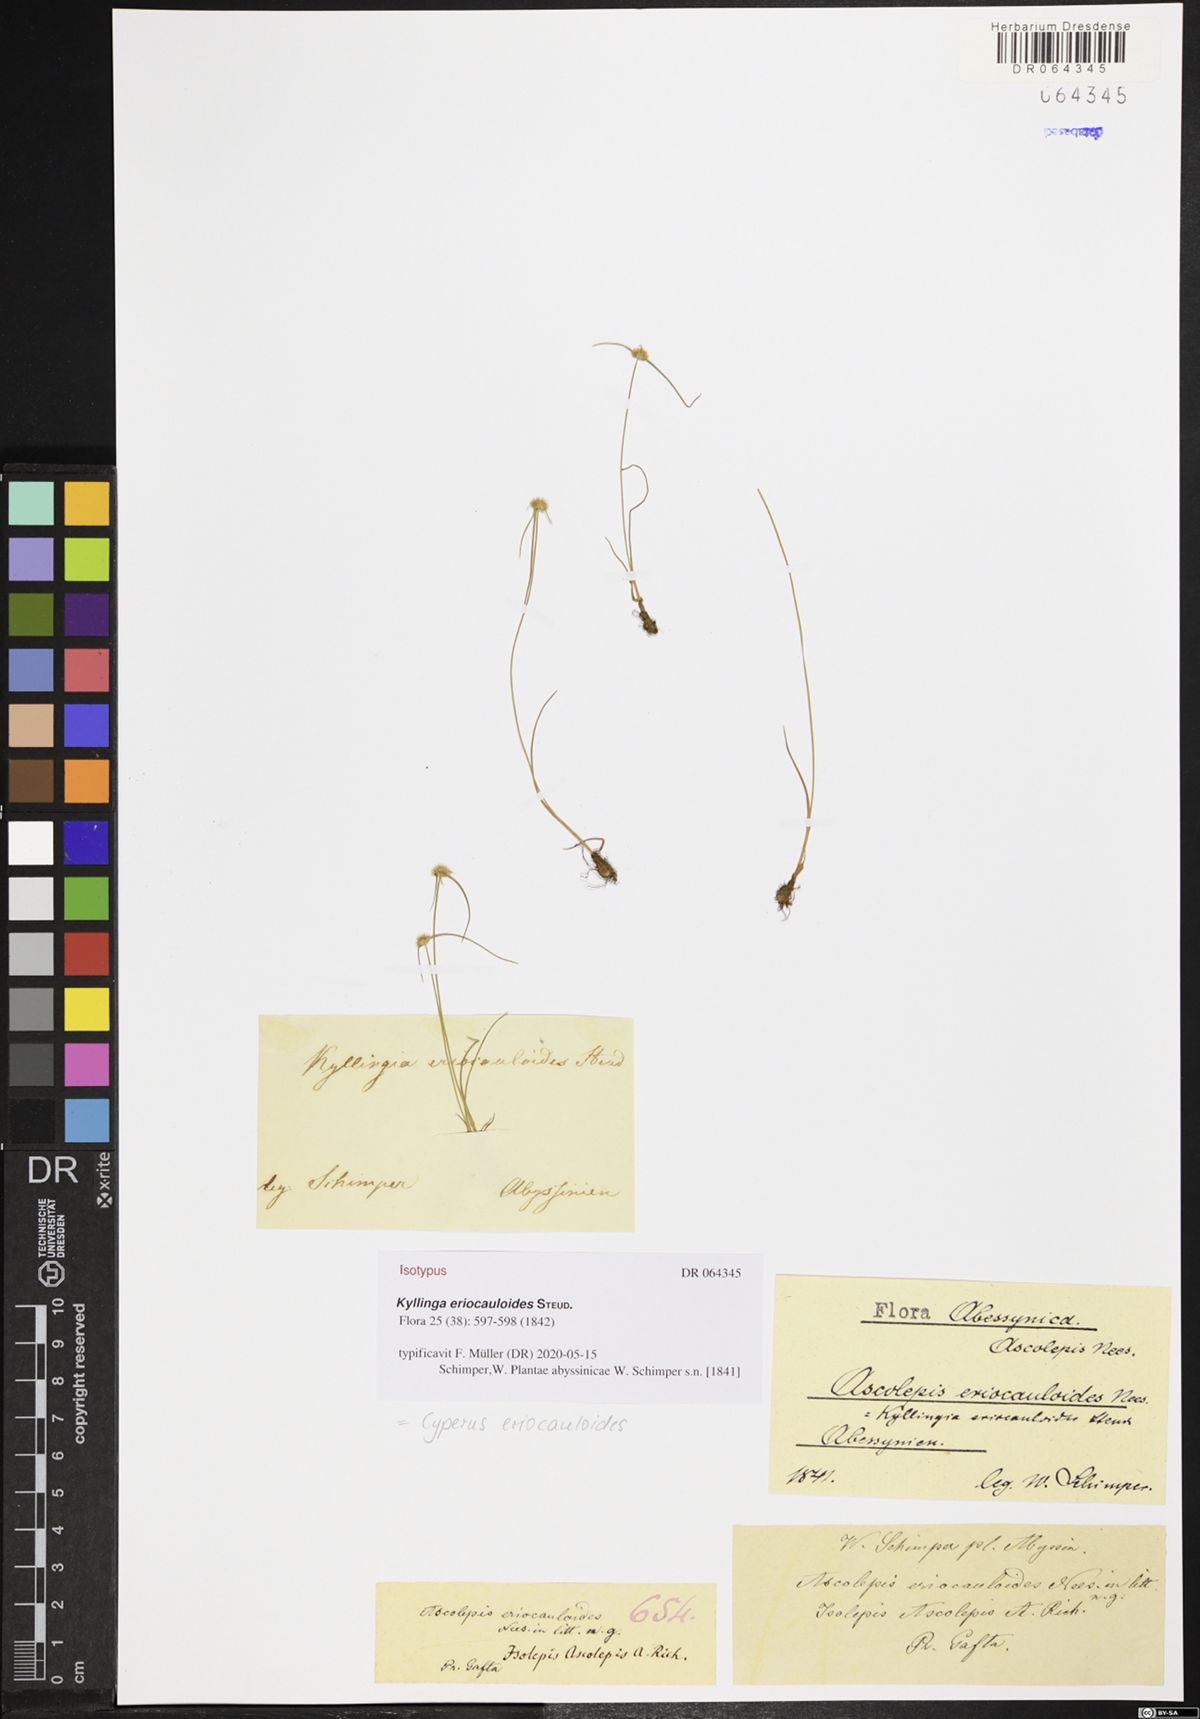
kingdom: Plantae
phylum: Tracheophyta
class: Liliopsida
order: Poales
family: Cyperaceae
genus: Cyperus
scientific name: Cyperus eriocauloides
